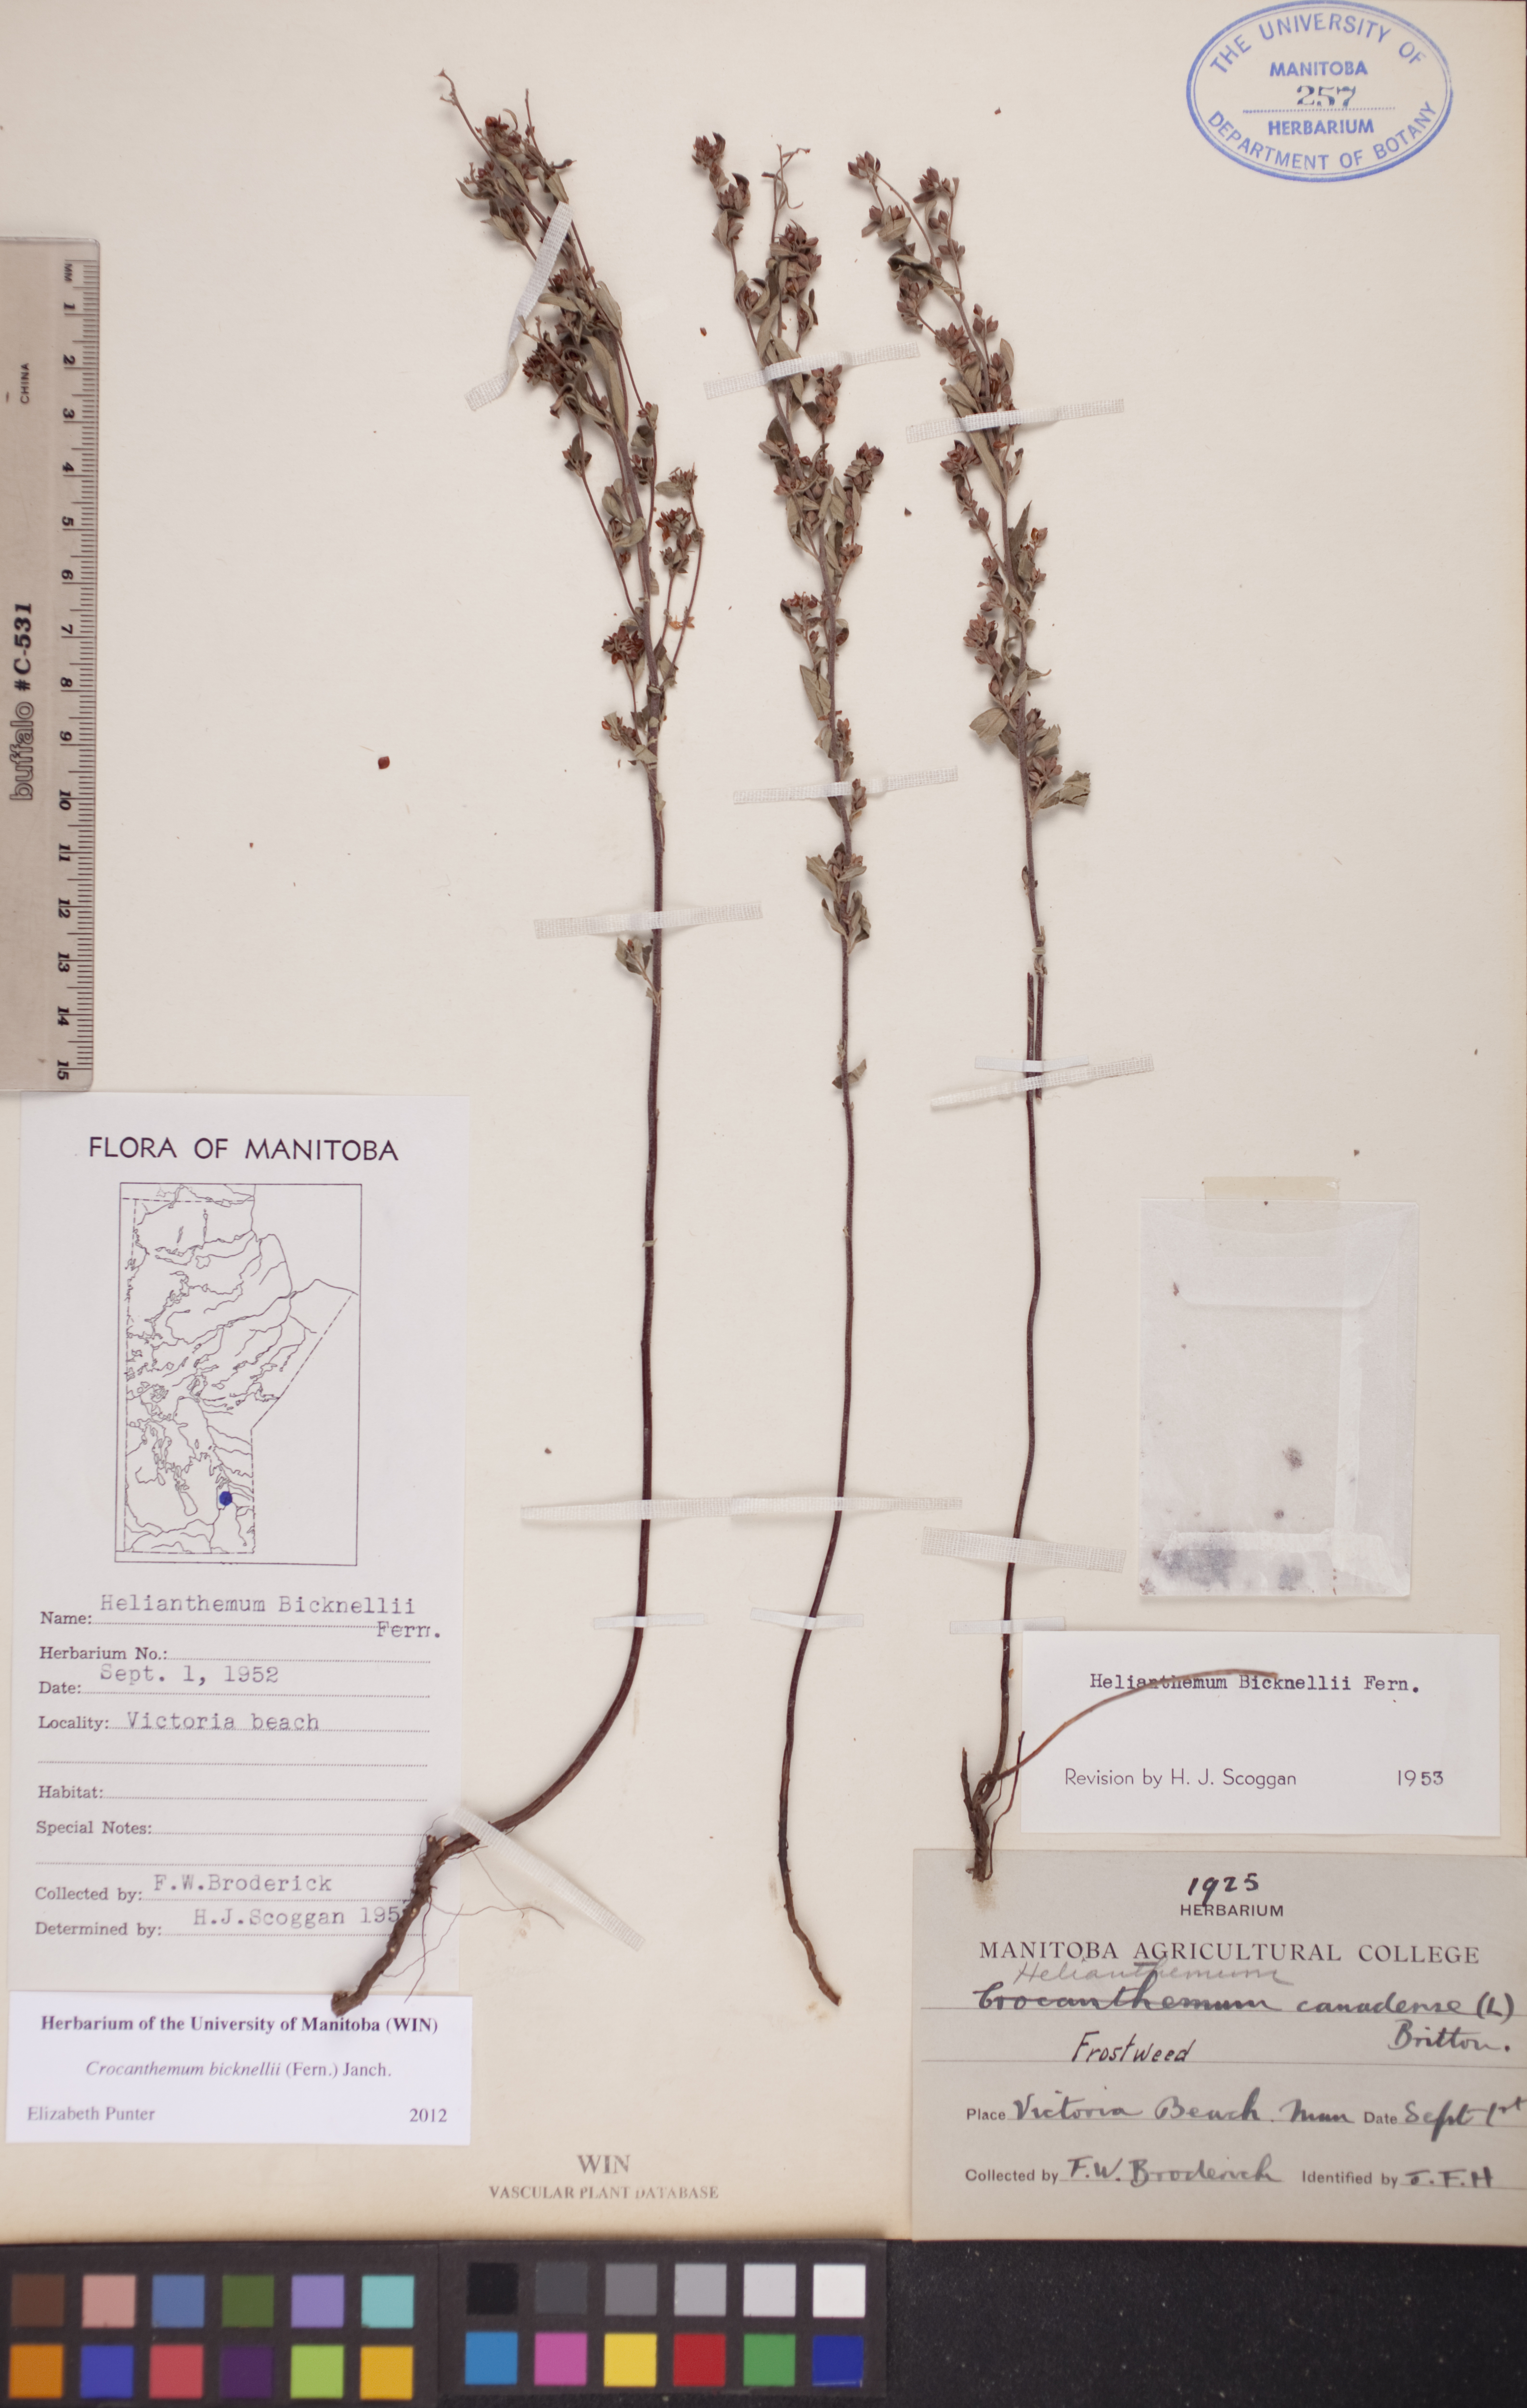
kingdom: Plantae
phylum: Tracheophyta
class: Magnoliopsida
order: Malvales
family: Cistaceae
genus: Crocanthemum
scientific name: Crocanthemum bicknellii
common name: Hoary frostweed
